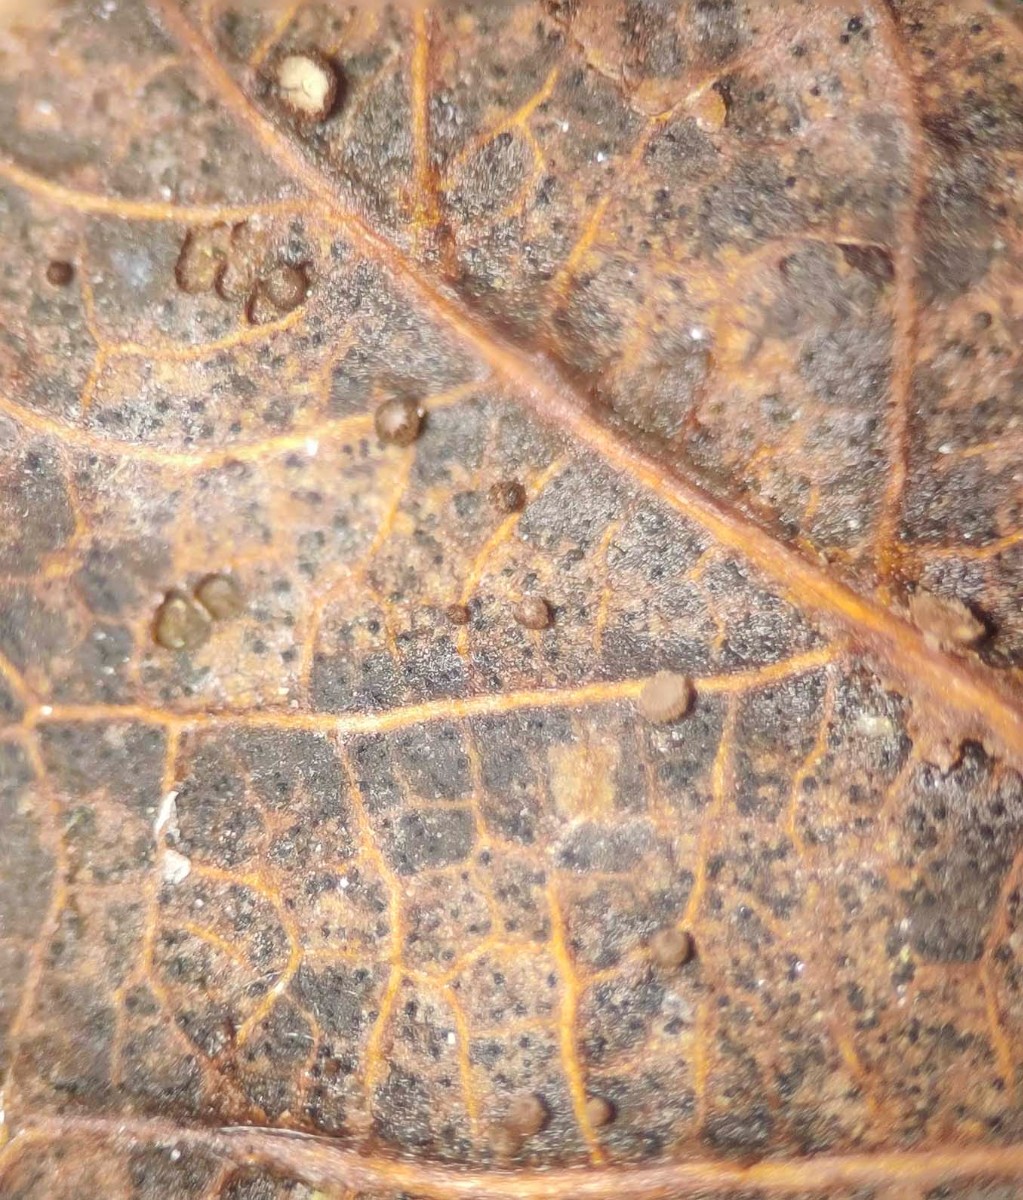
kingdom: Fungi
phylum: Ascomycota
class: Leotiomycetes
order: Helotiales
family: Lachnaceae
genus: Brunnipila
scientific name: Brunnipila brunneola
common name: læderbrun frynseskive
